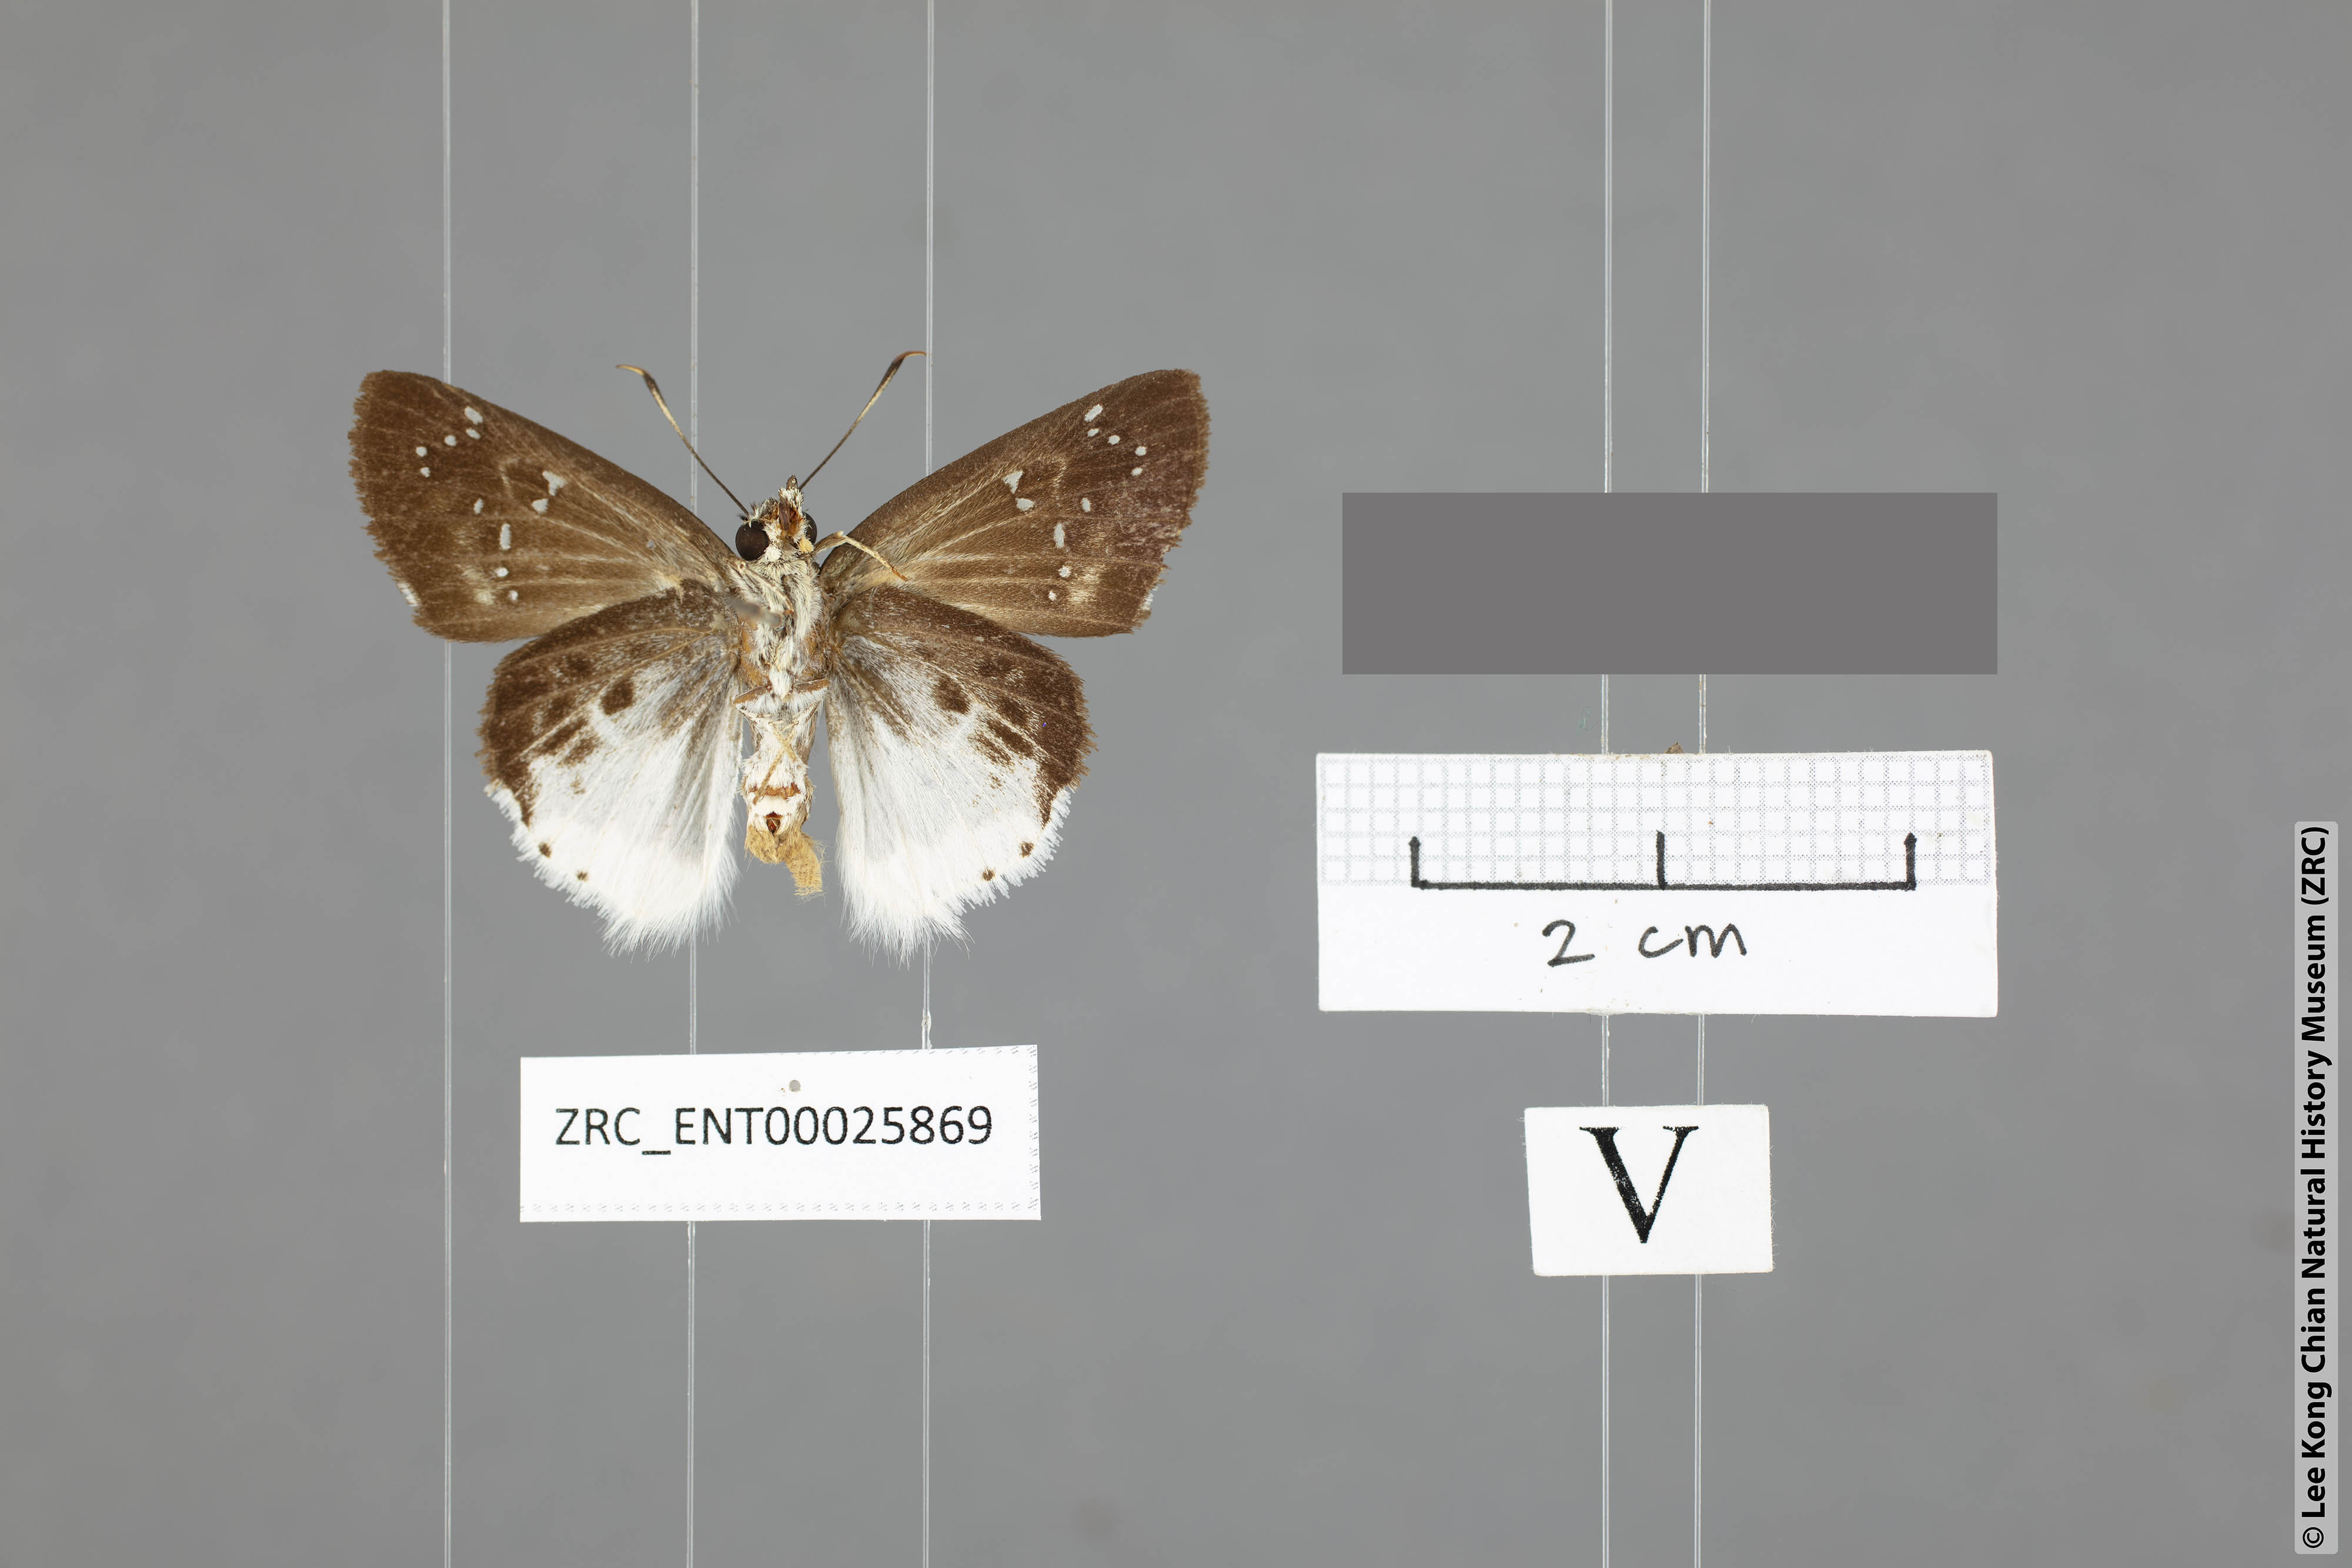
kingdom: Animalia
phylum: Arthropoda
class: Insecta
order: Lepidoptera
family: Hesperiidae
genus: Darpa
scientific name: Darpa striata
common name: Striated angle
